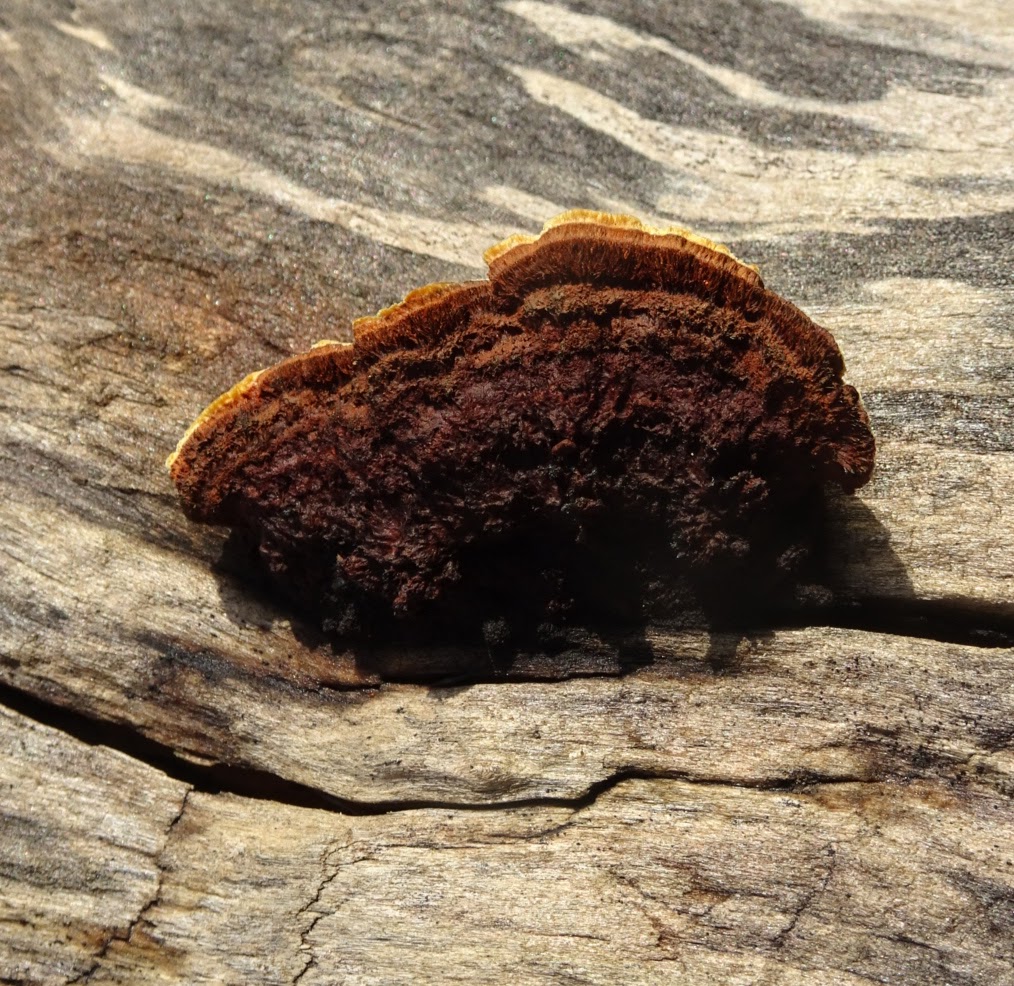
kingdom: Fungi
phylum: Basidiomycota
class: Agaricomycetes
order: Gloeophyllales
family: Gloeophyllaceae
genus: Gloeophyllum
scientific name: Gloeophyllum sepiarium
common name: fyrre-korkhat
